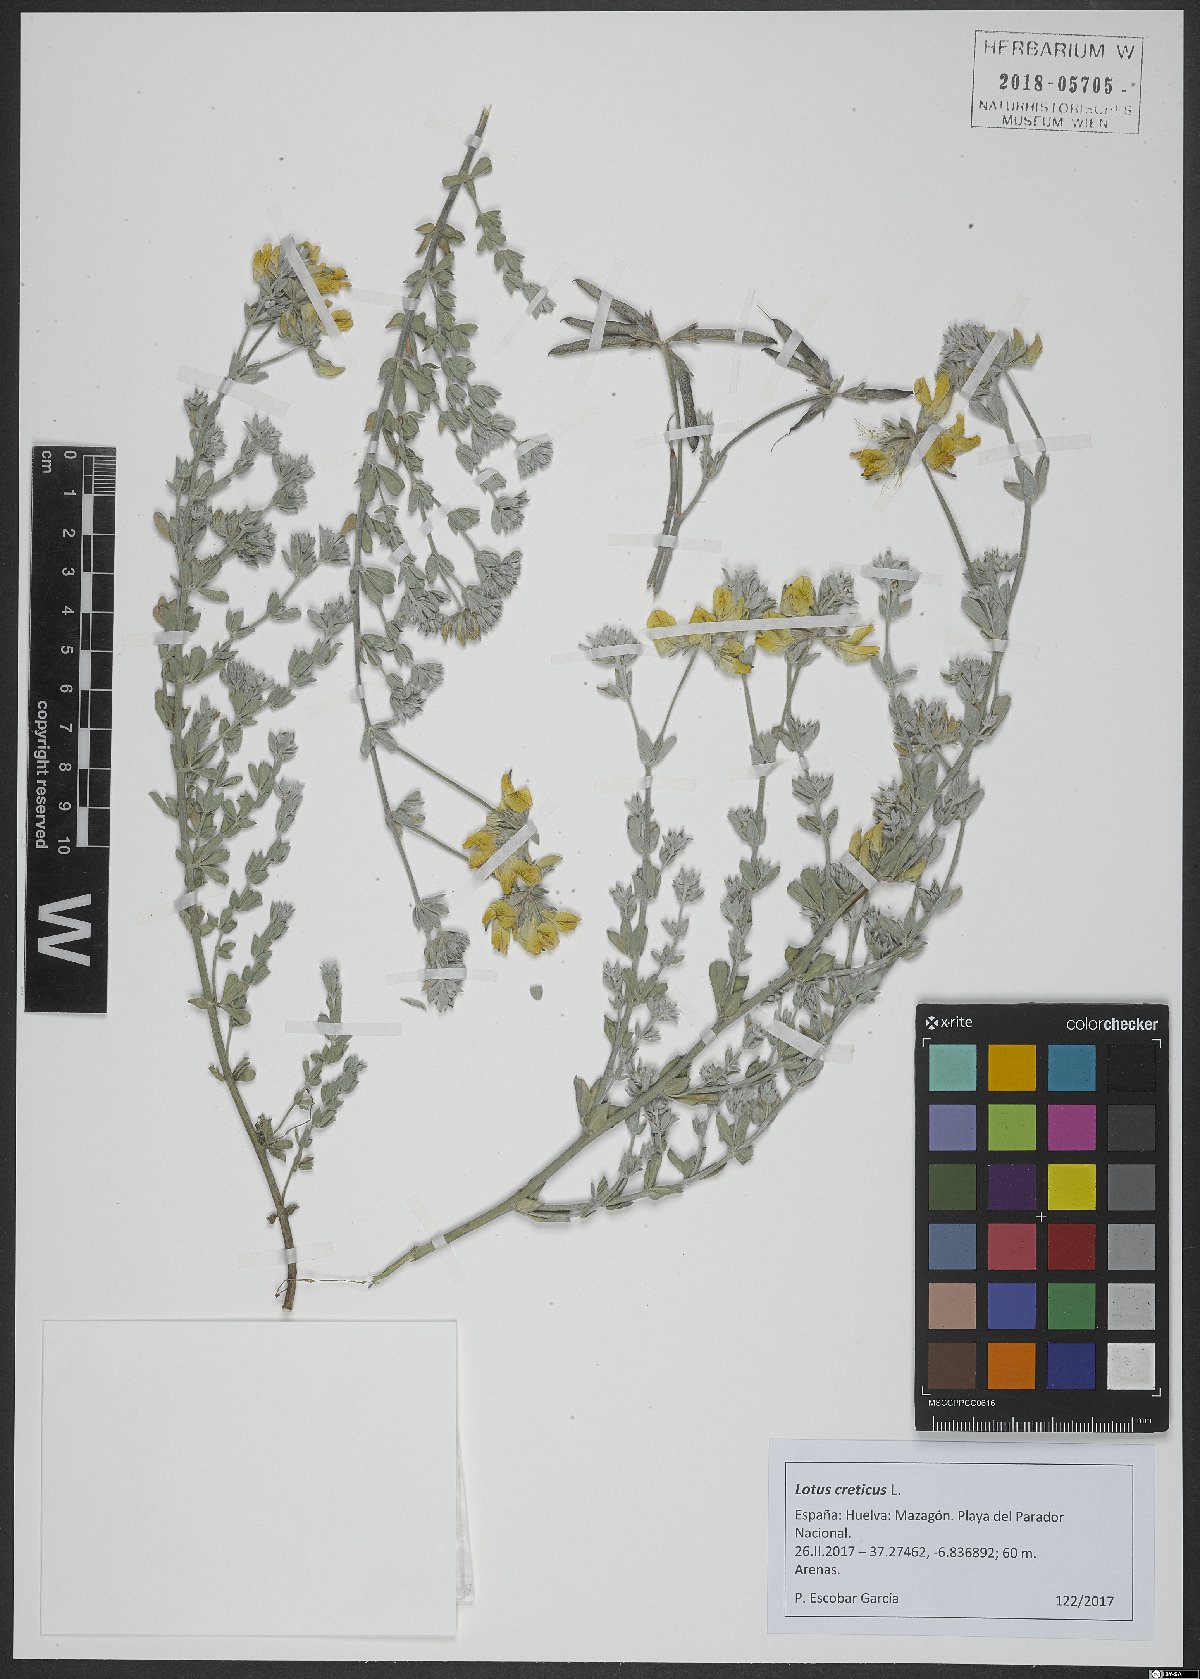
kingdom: Plantae
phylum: Tracheophyta
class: Magnoliopsida
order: Fabales
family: Fabaceae
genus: Lotus
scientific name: Lotus creticus
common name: Cretan bird's-foot trefoil
